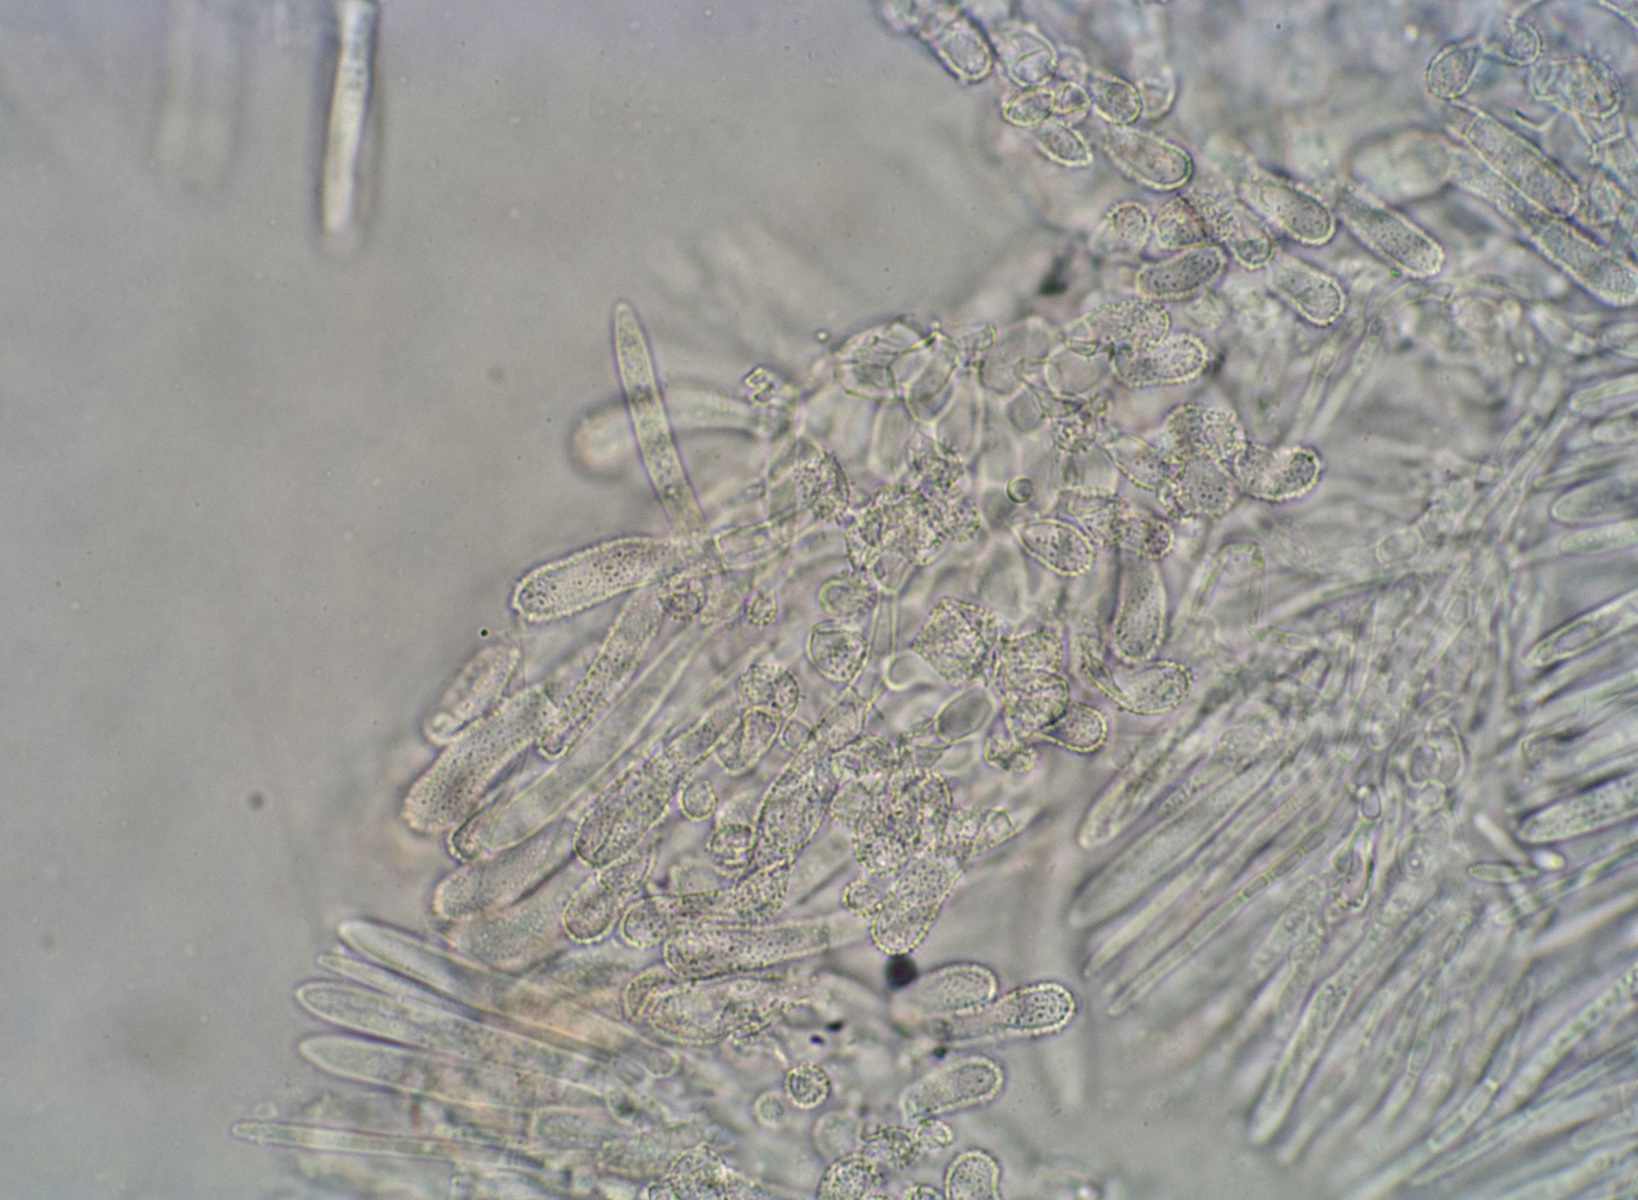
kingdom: Fungi
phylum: Ascomycota
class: Leotiomycetes
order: Helotiales
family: Hyaloscyphaceae
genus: Cistella
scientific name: Cistella hungarica
